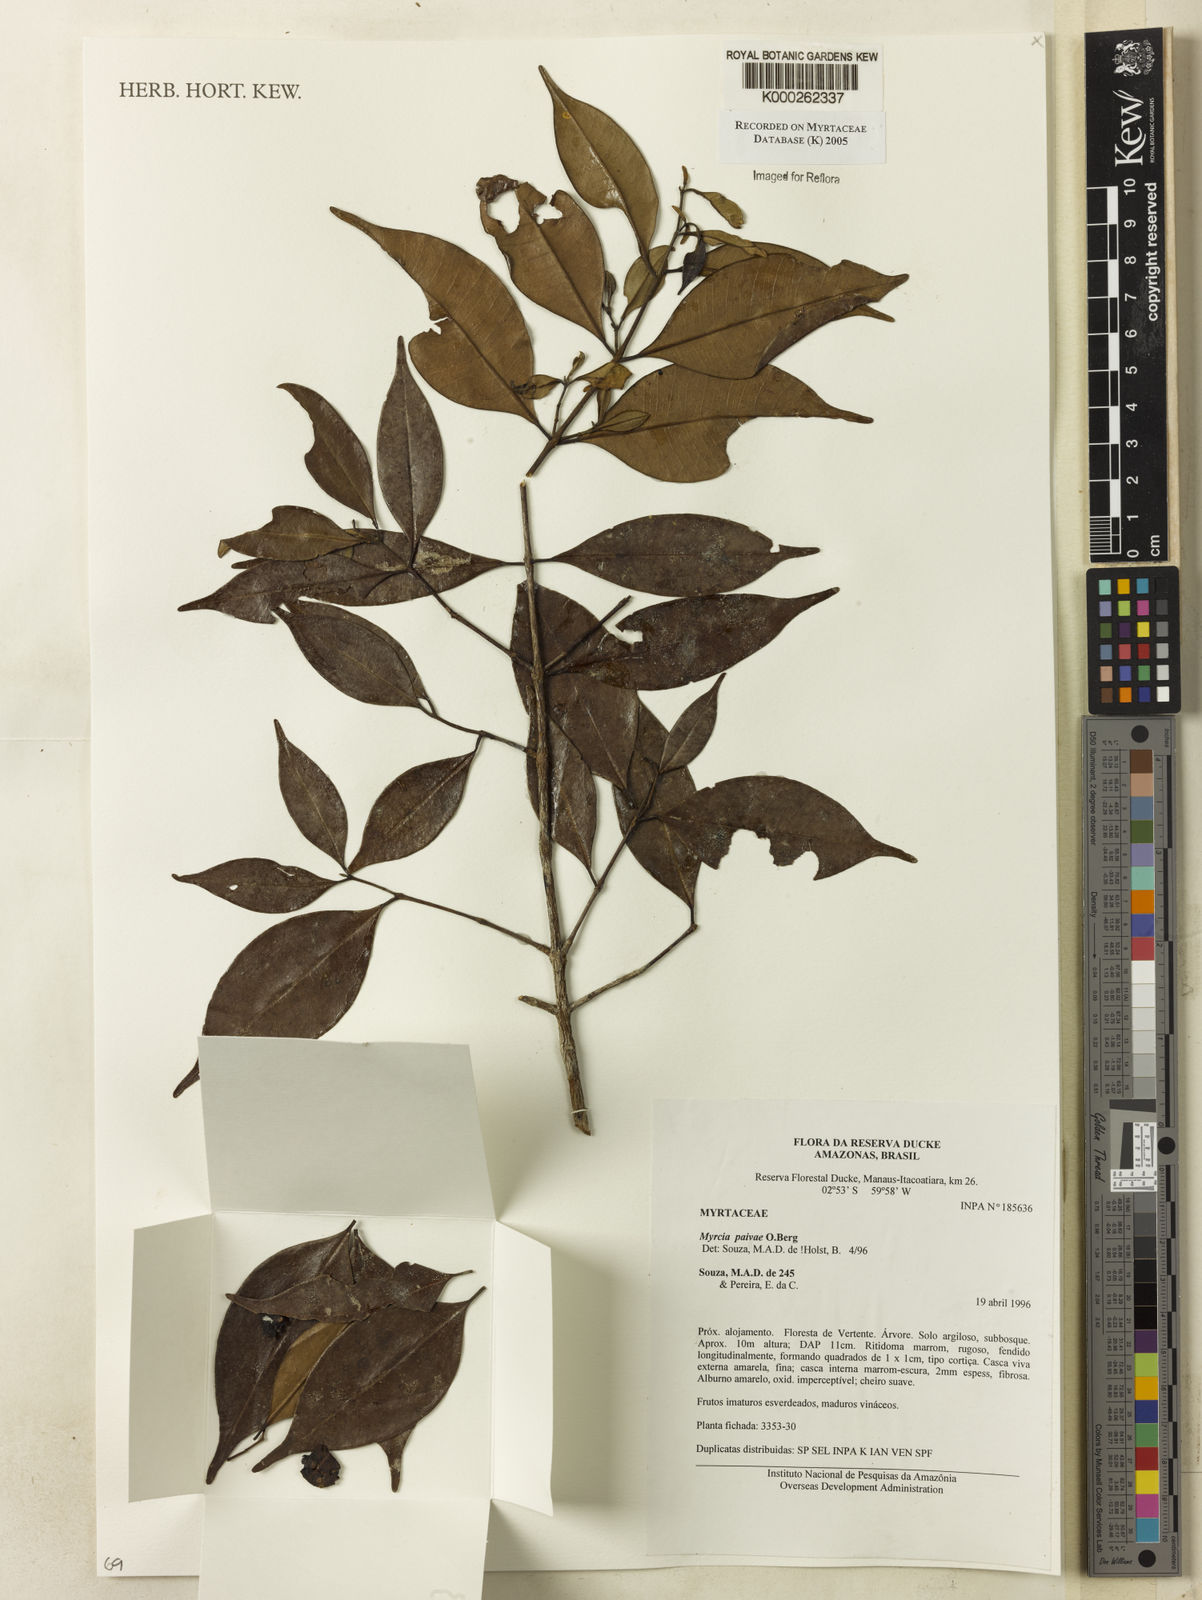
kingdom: Plantae
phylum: Tracheophyta
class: Magnoliopsida
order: Myrtales
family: Myrtaceae
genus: Myrcia
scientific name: Myrcia paivae
